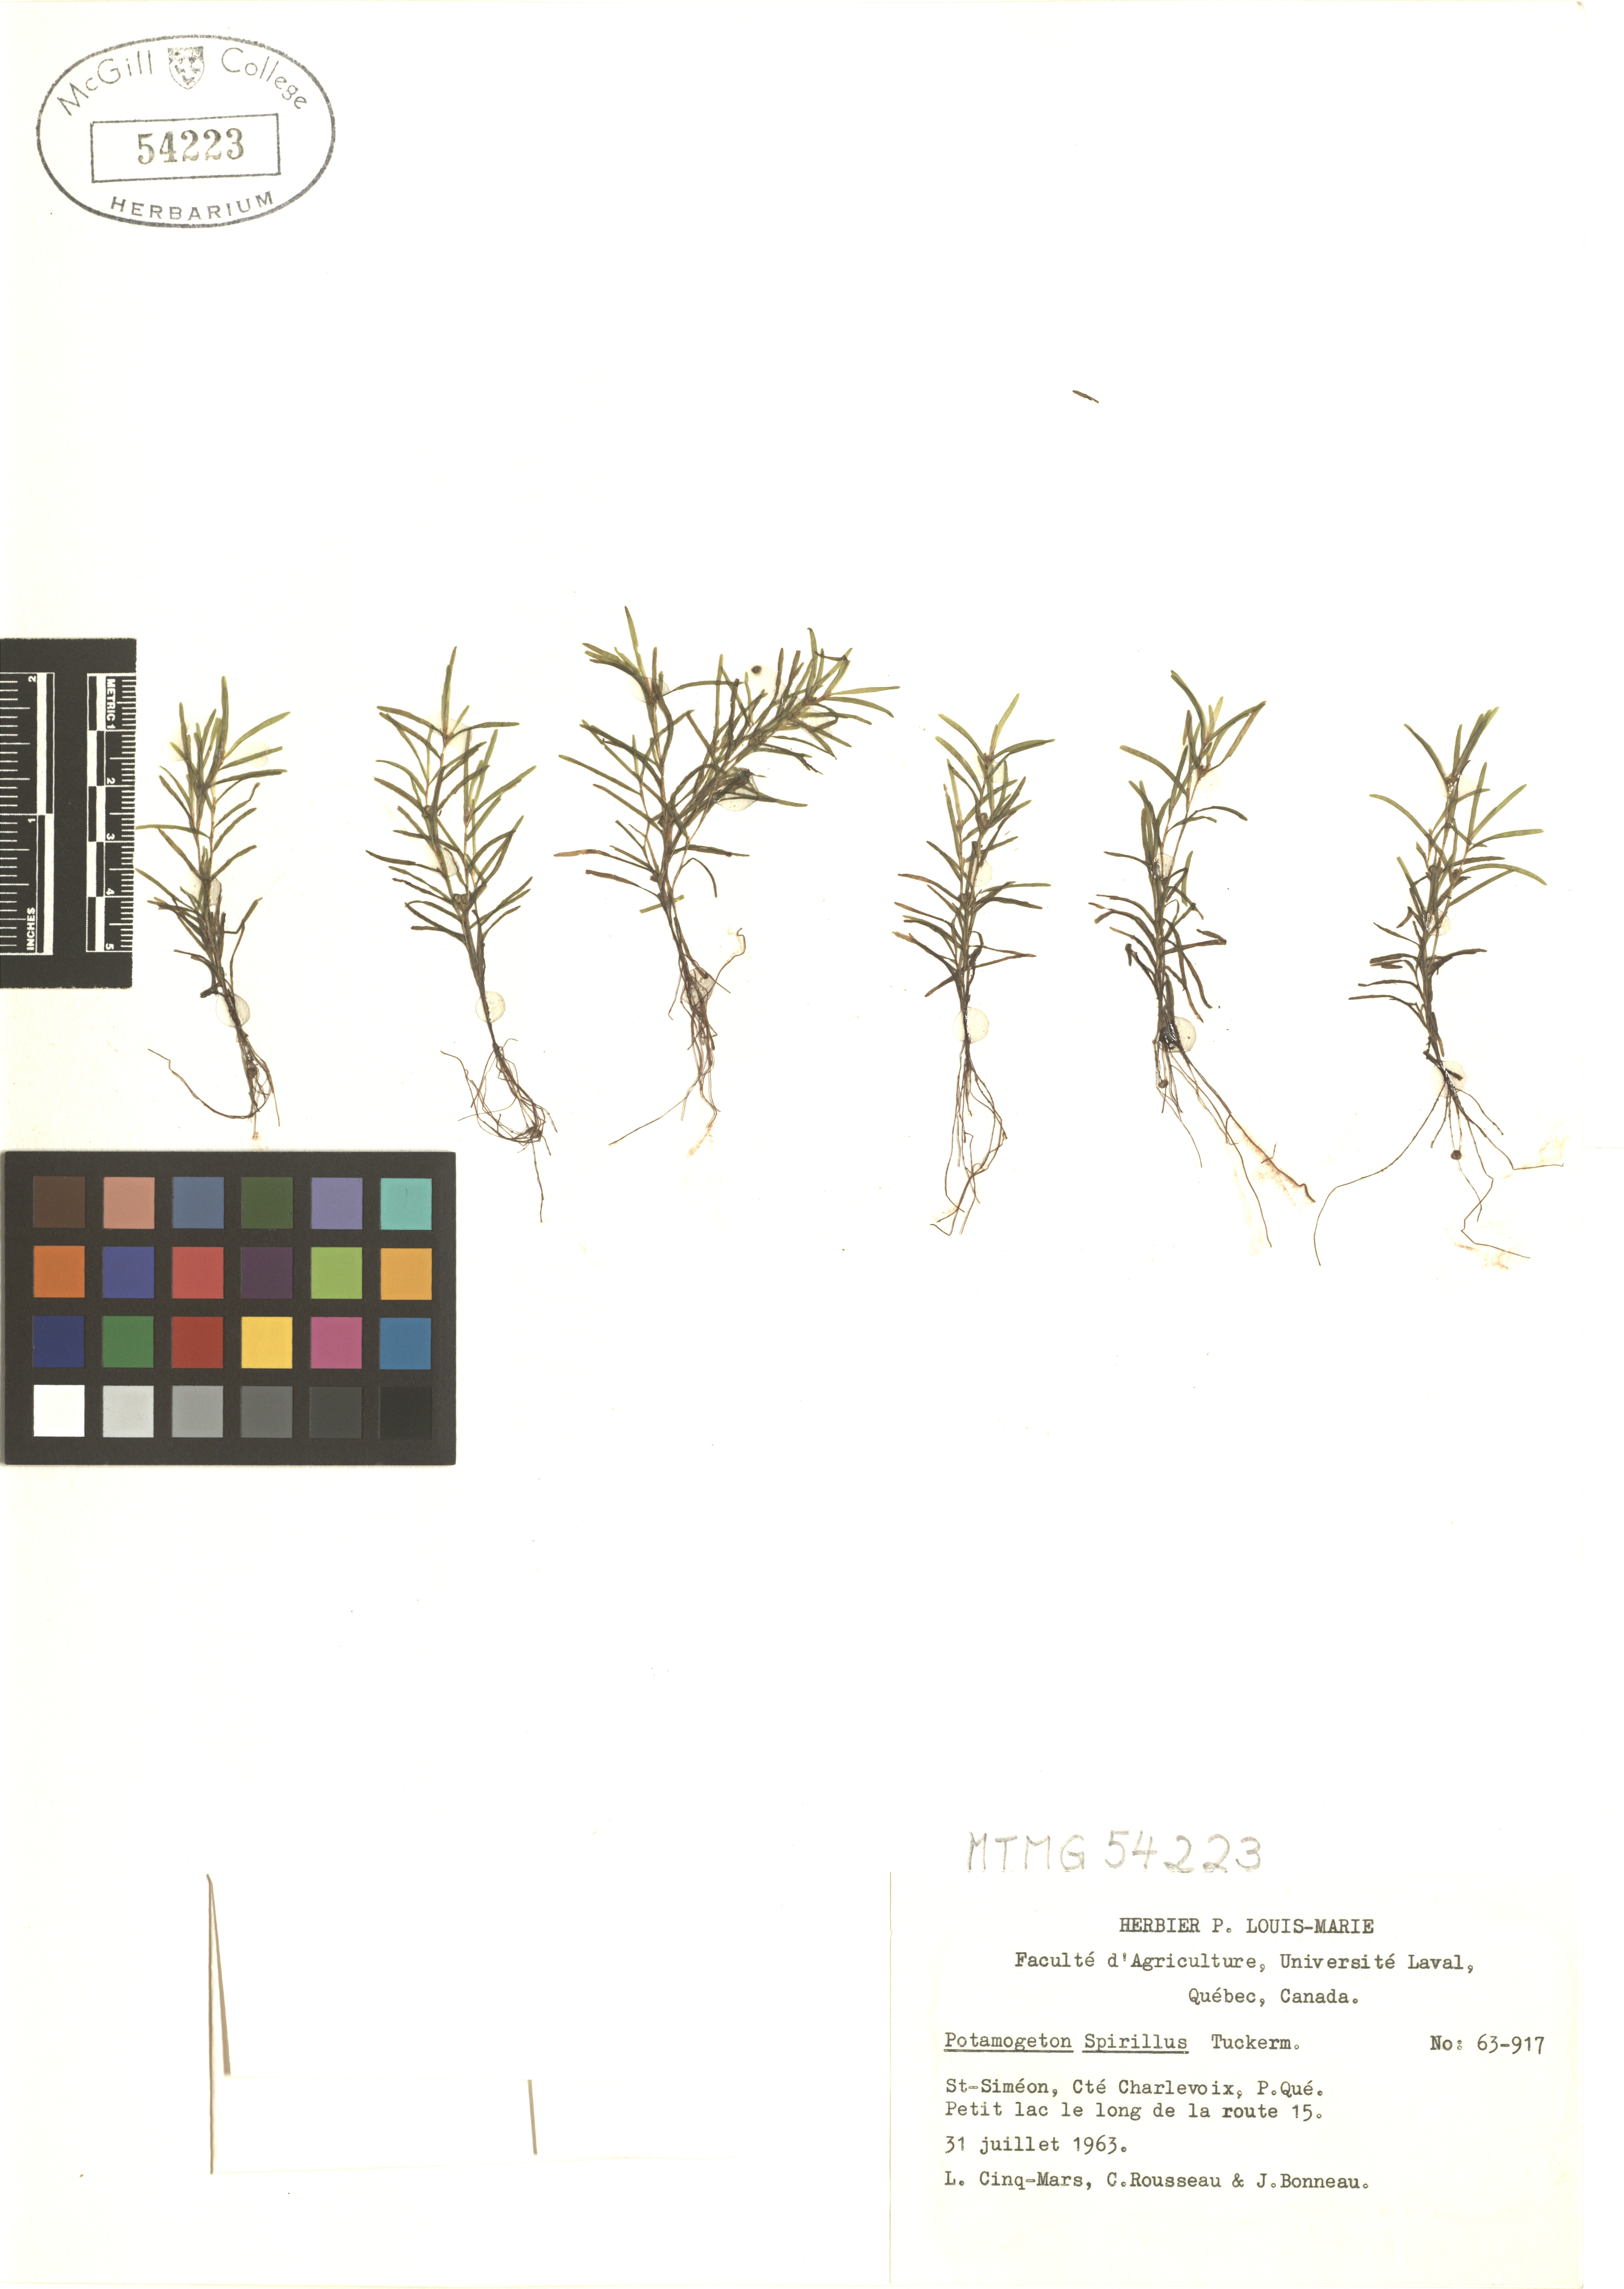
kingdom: Plantae
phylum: Tracheophyta
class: Liliopsida
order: Alismatales
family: Potamogetonaceae
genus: Potamogeton
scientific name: Potamogeton spirillus
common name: Northern snail-seed pondweed
